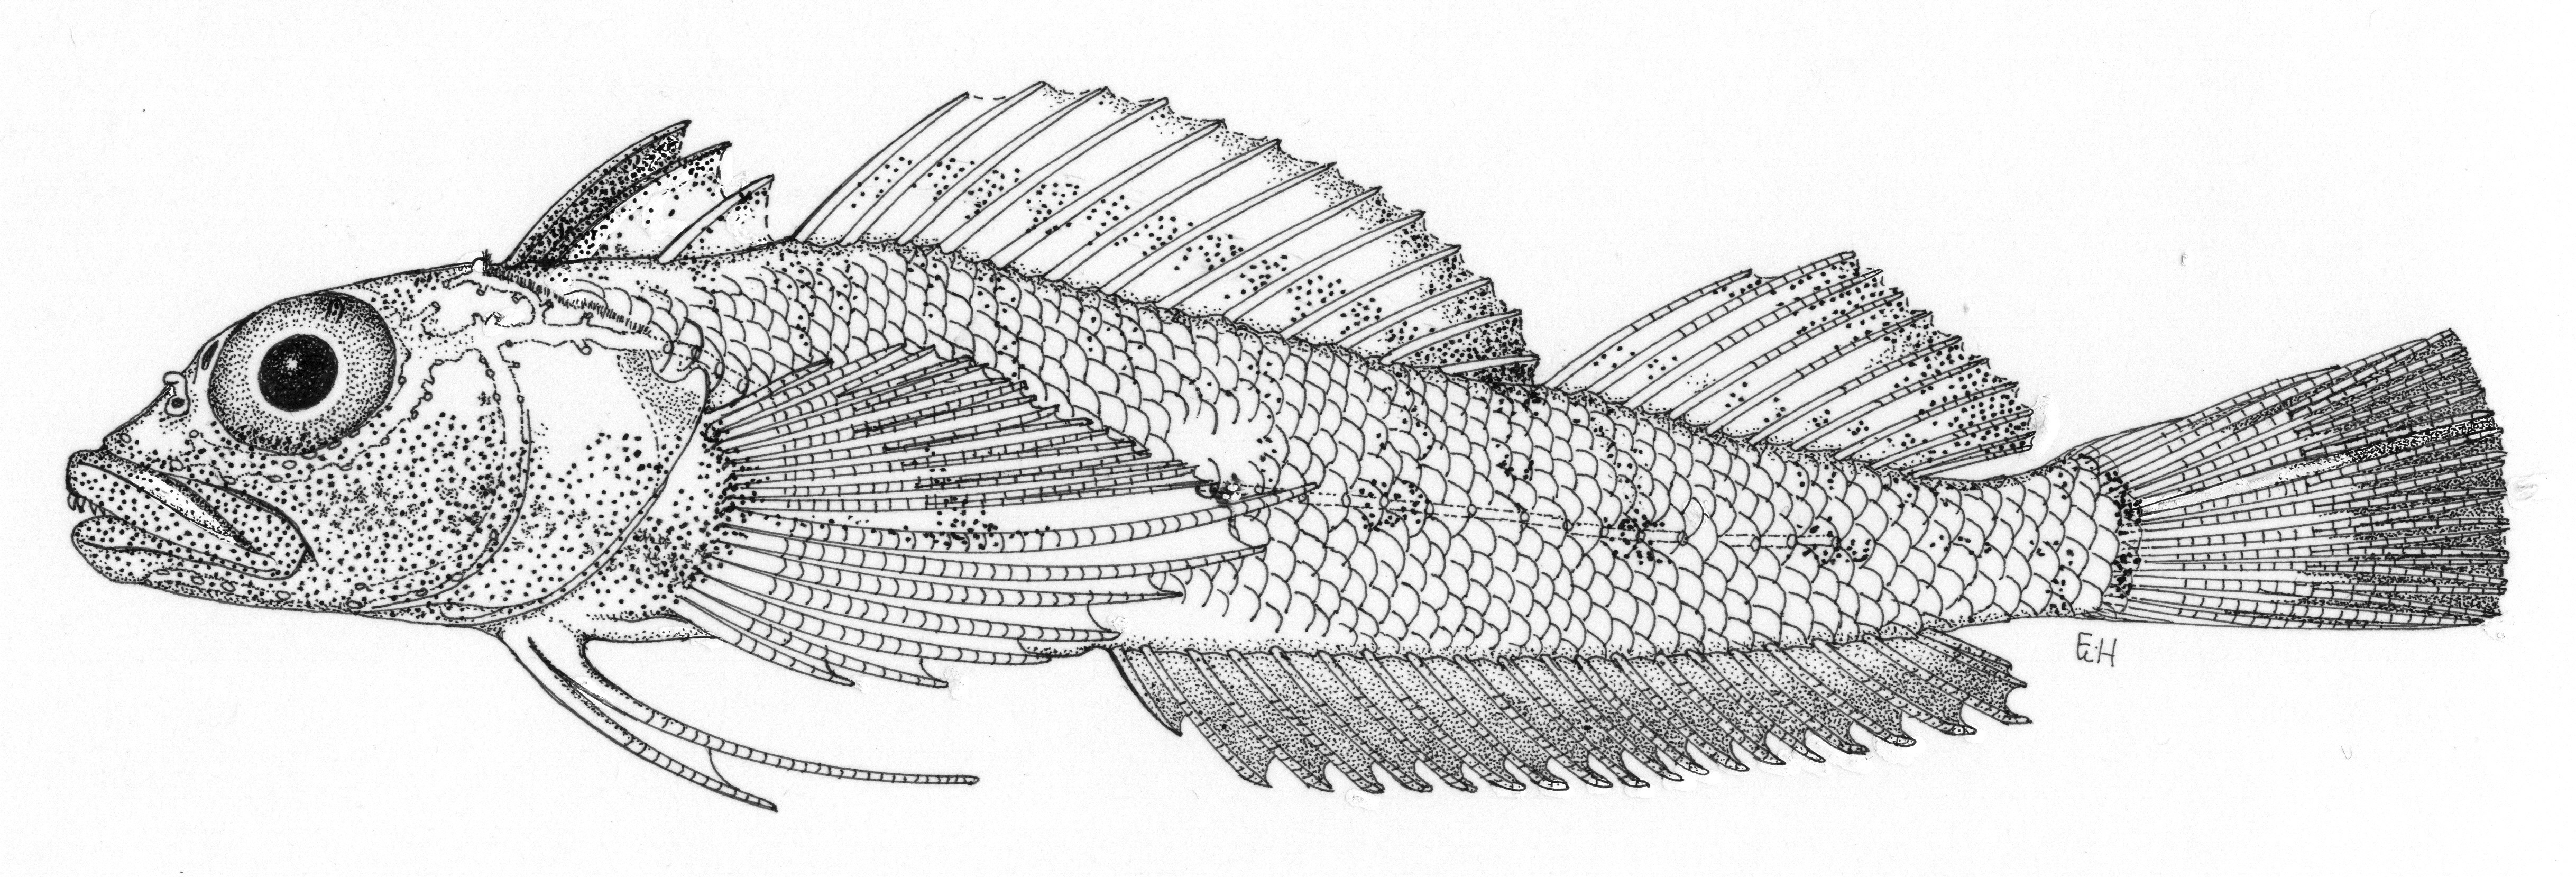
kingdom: Animalia
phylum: Chordata
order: Perciformes
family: Tripterygiidae
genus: Helcogramma
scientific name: Helcogramma rosea
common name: Rosy triplefin
